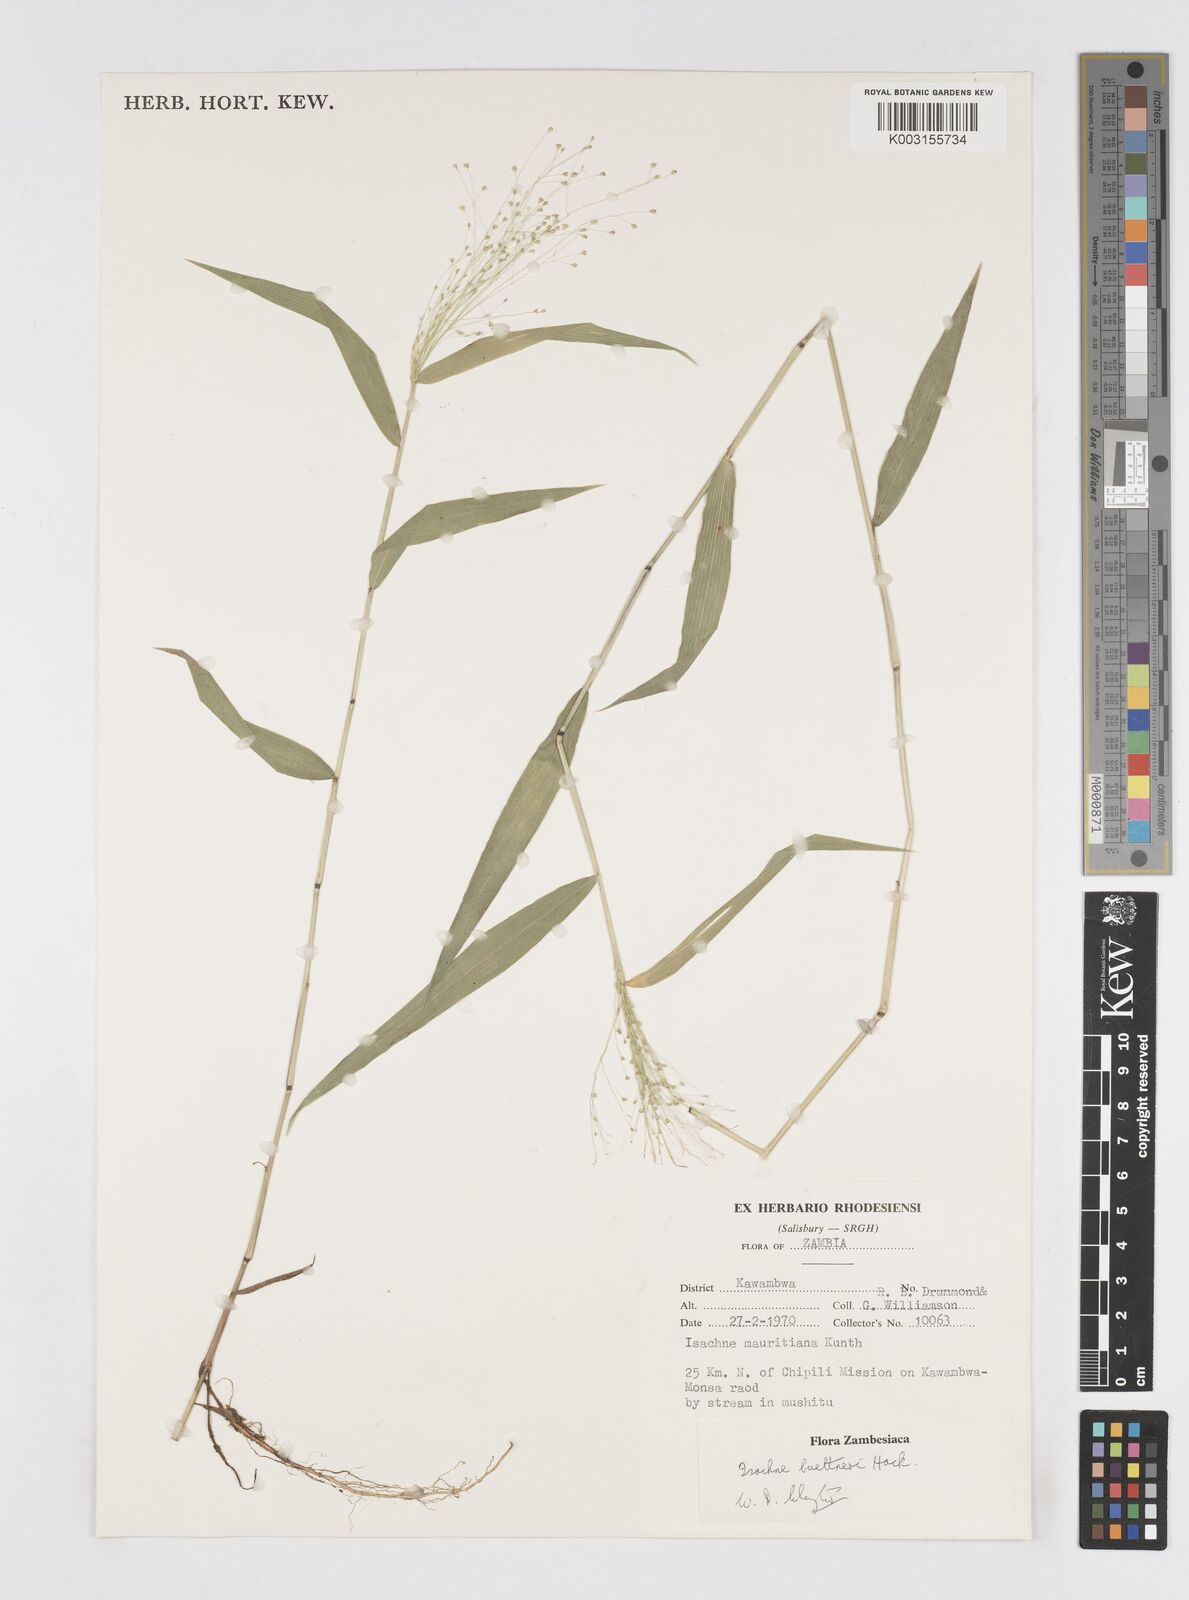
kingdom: Plantae
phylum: Tracheophyta
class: Liliopsida
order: Poales
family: Poaceae
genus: Isachne
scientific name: Isachne albens
